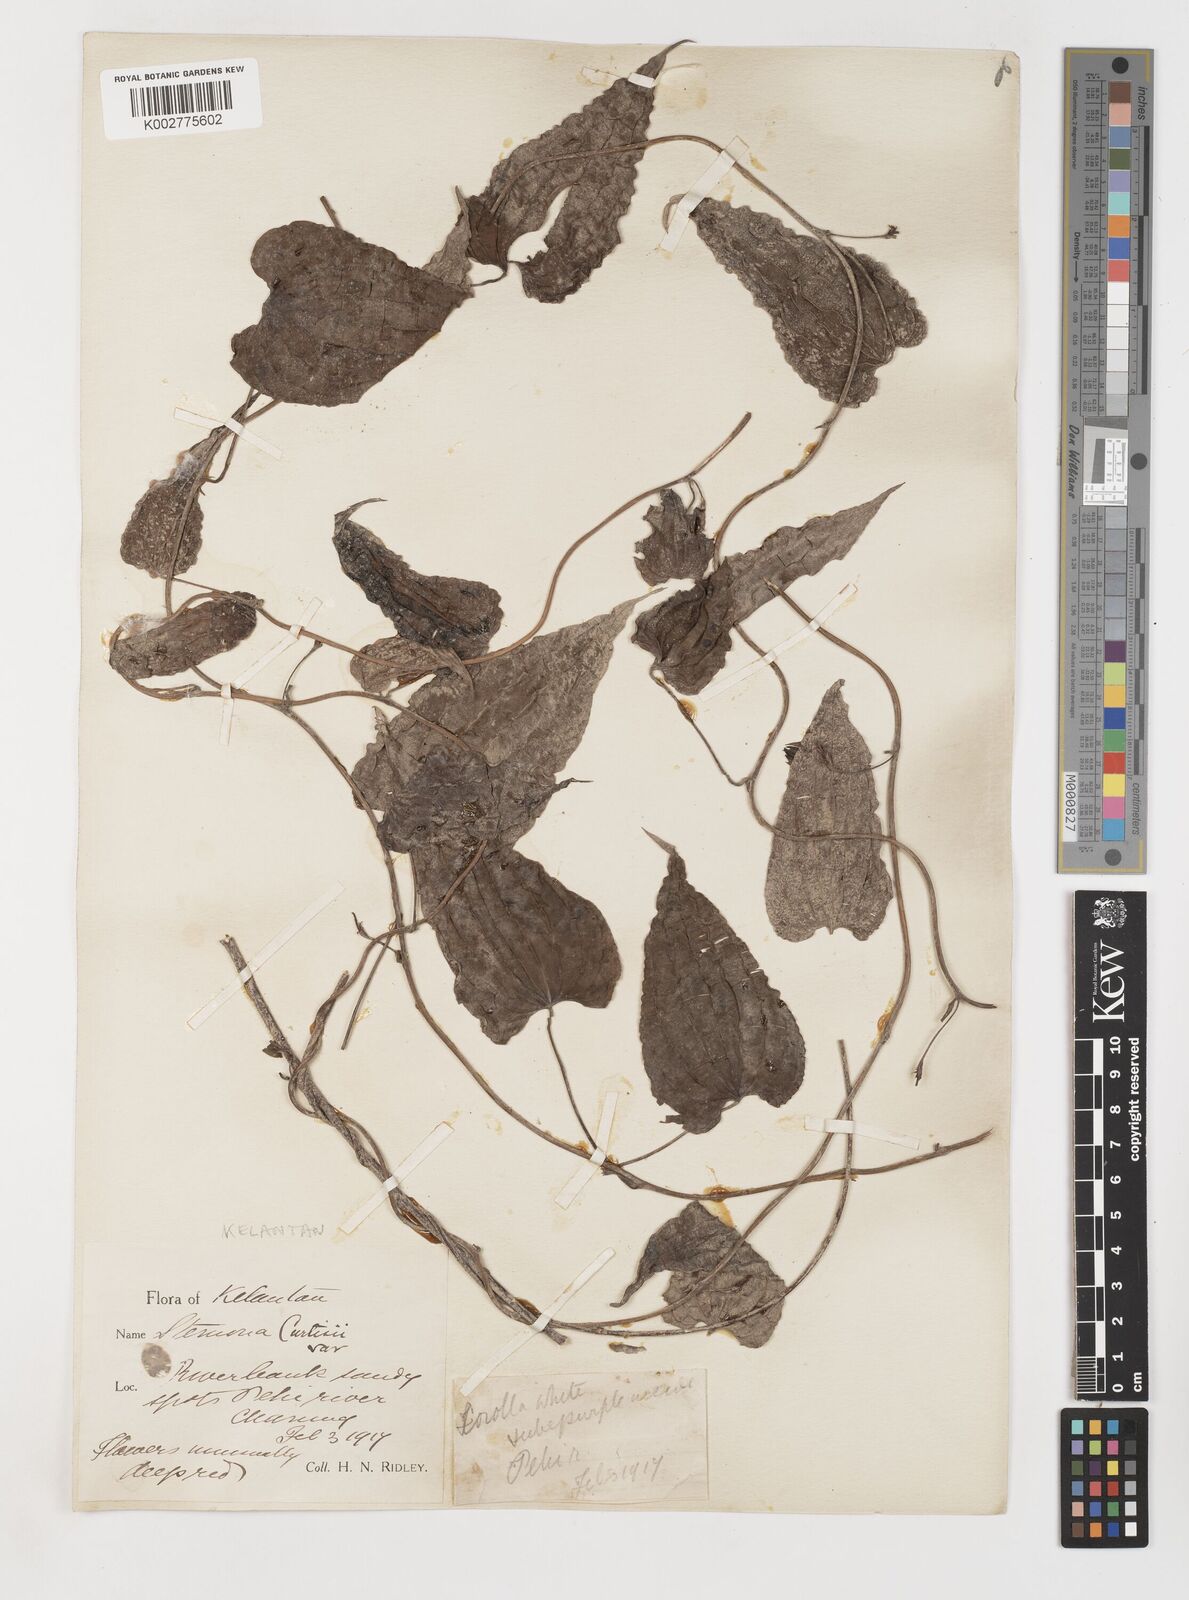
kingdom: Plantae
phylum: Tracheophyta
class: Liliopsida
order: Pandanales
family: Stemonaceae
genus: Stemona
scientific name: Stemona tuberosa
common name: Stemona
